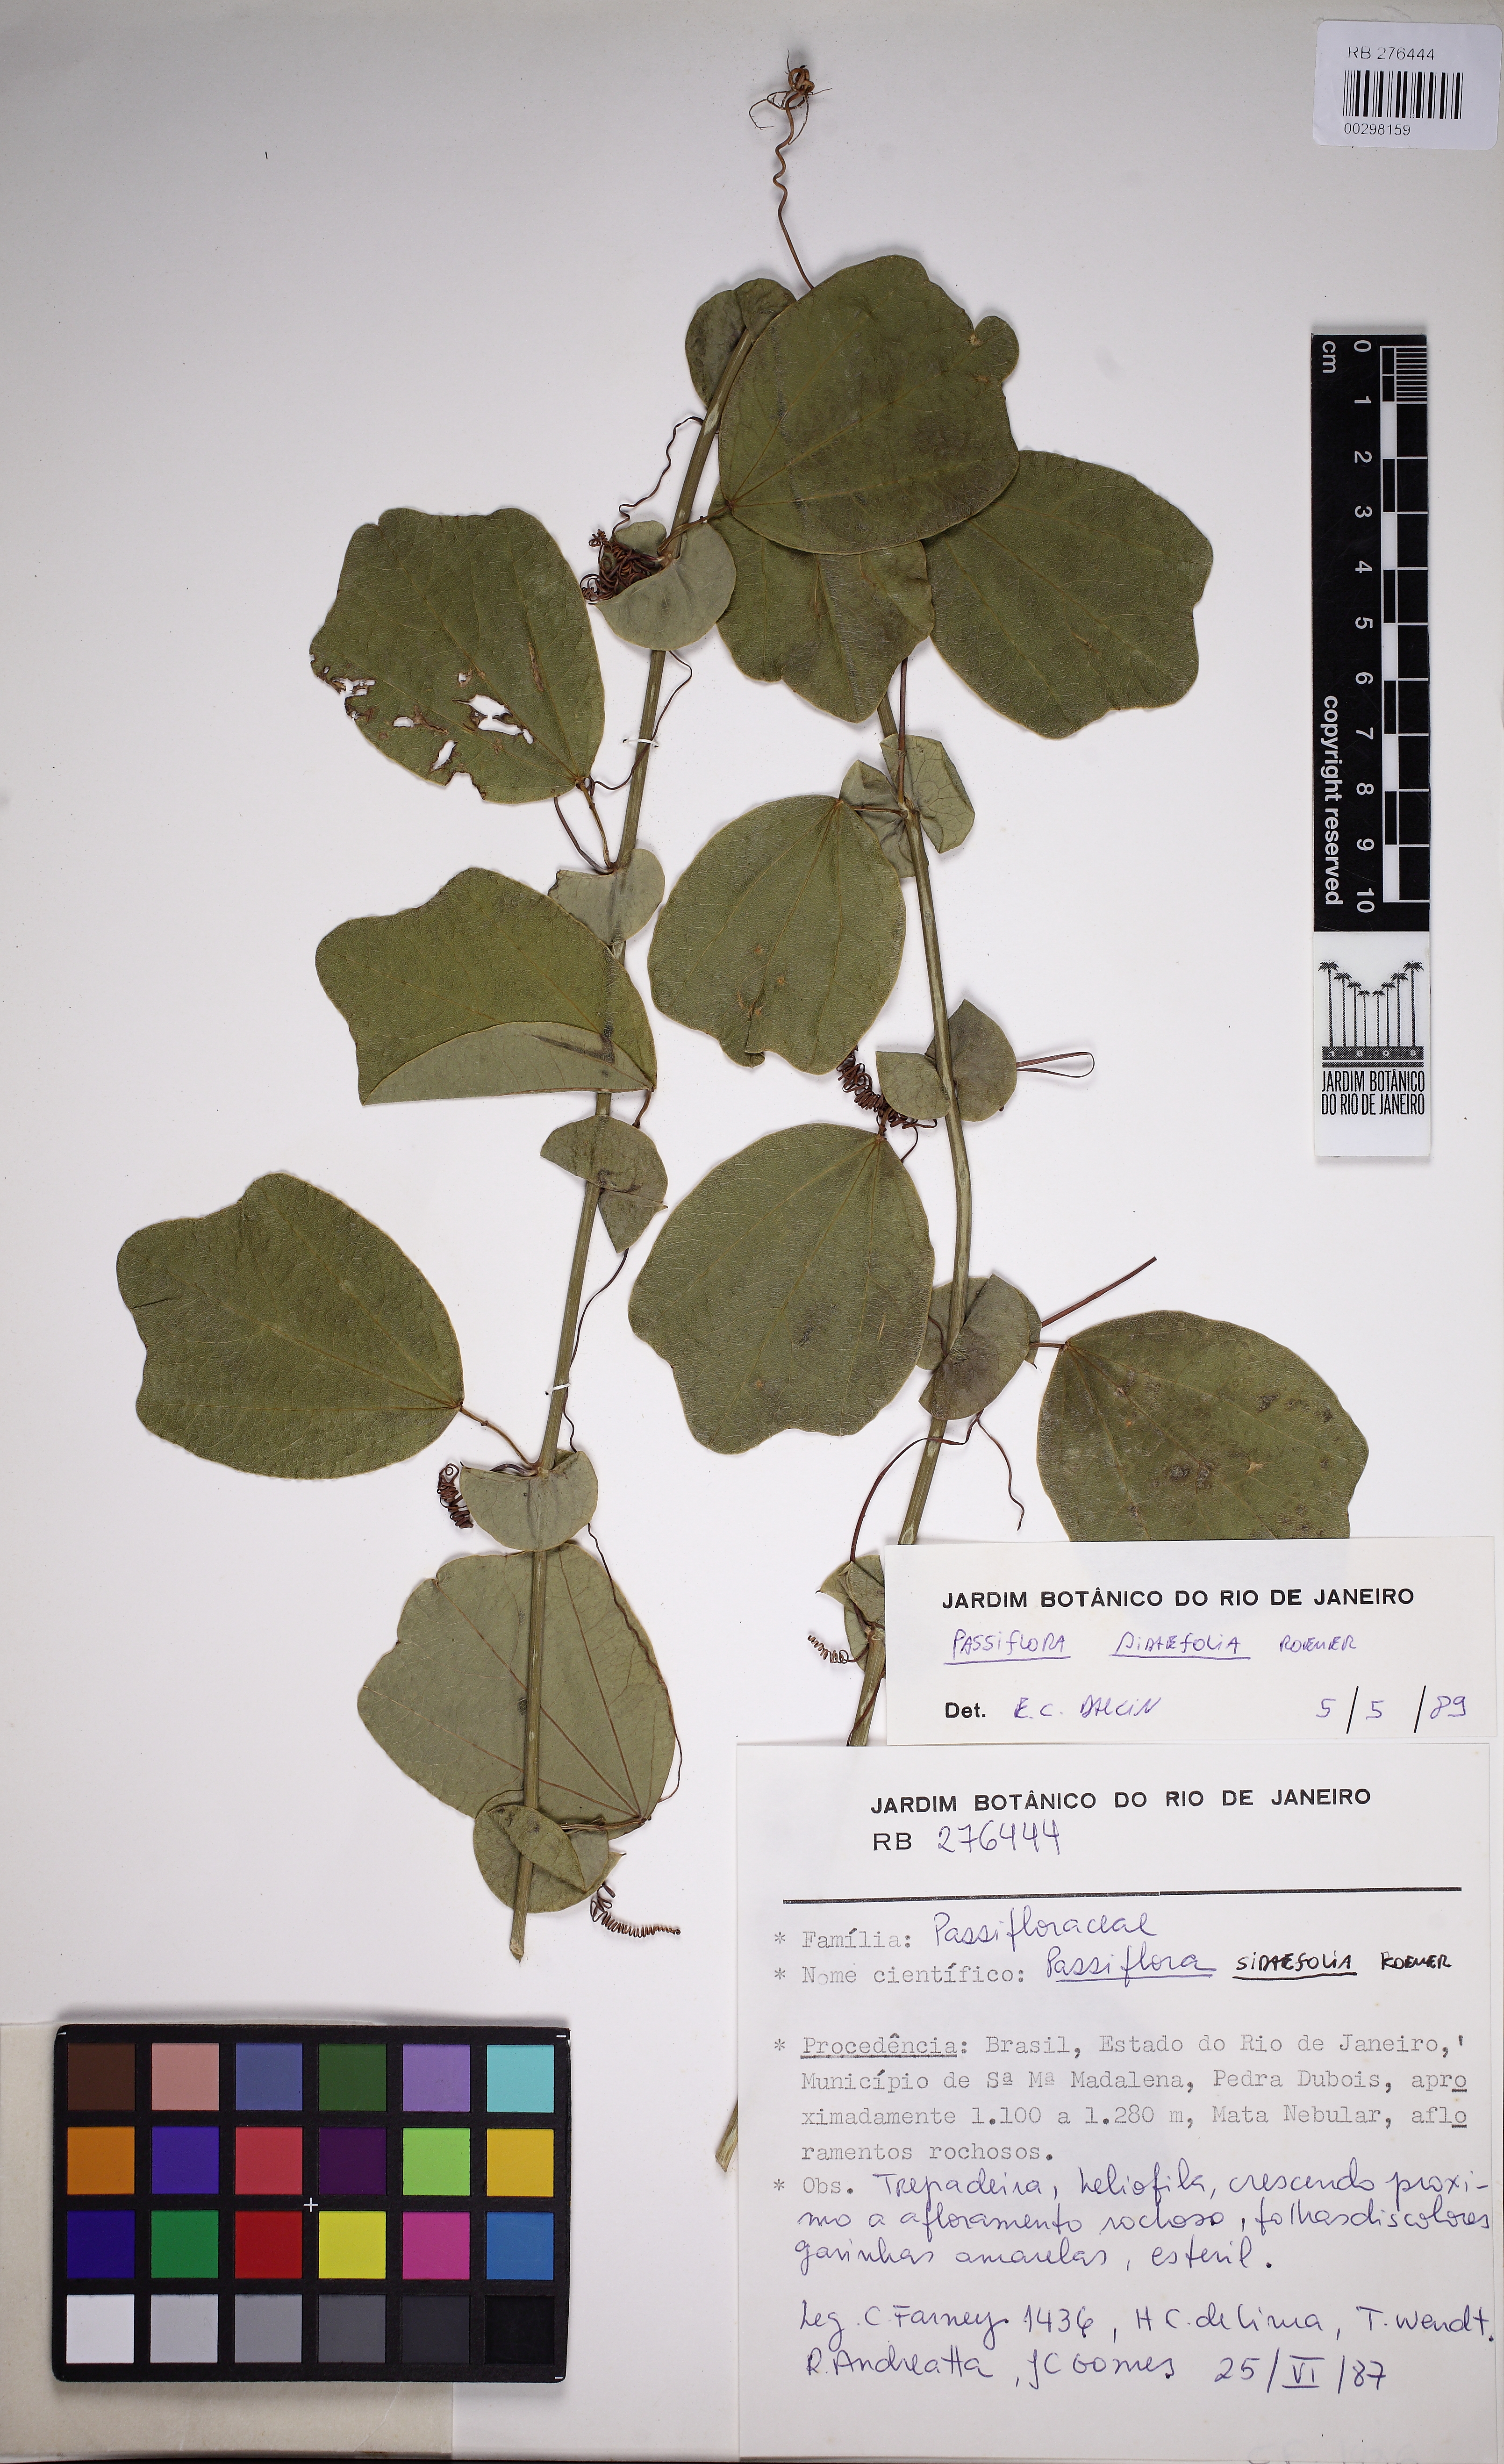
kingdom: Plantae
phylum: Tracheophyta
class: Magnoliopsida
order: Malpighiales
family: Passifloraceae
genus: Passiflora
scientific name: Passiflora tetraden
